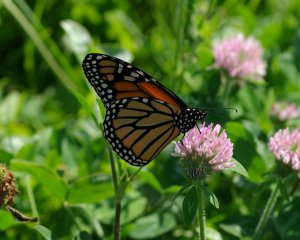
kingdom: Animalia
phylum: Arthropoda
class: Insecta
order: Lepidoptera
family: Nymphalidae
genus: Danaus
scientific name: Danaus plexippus
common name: Monarch
